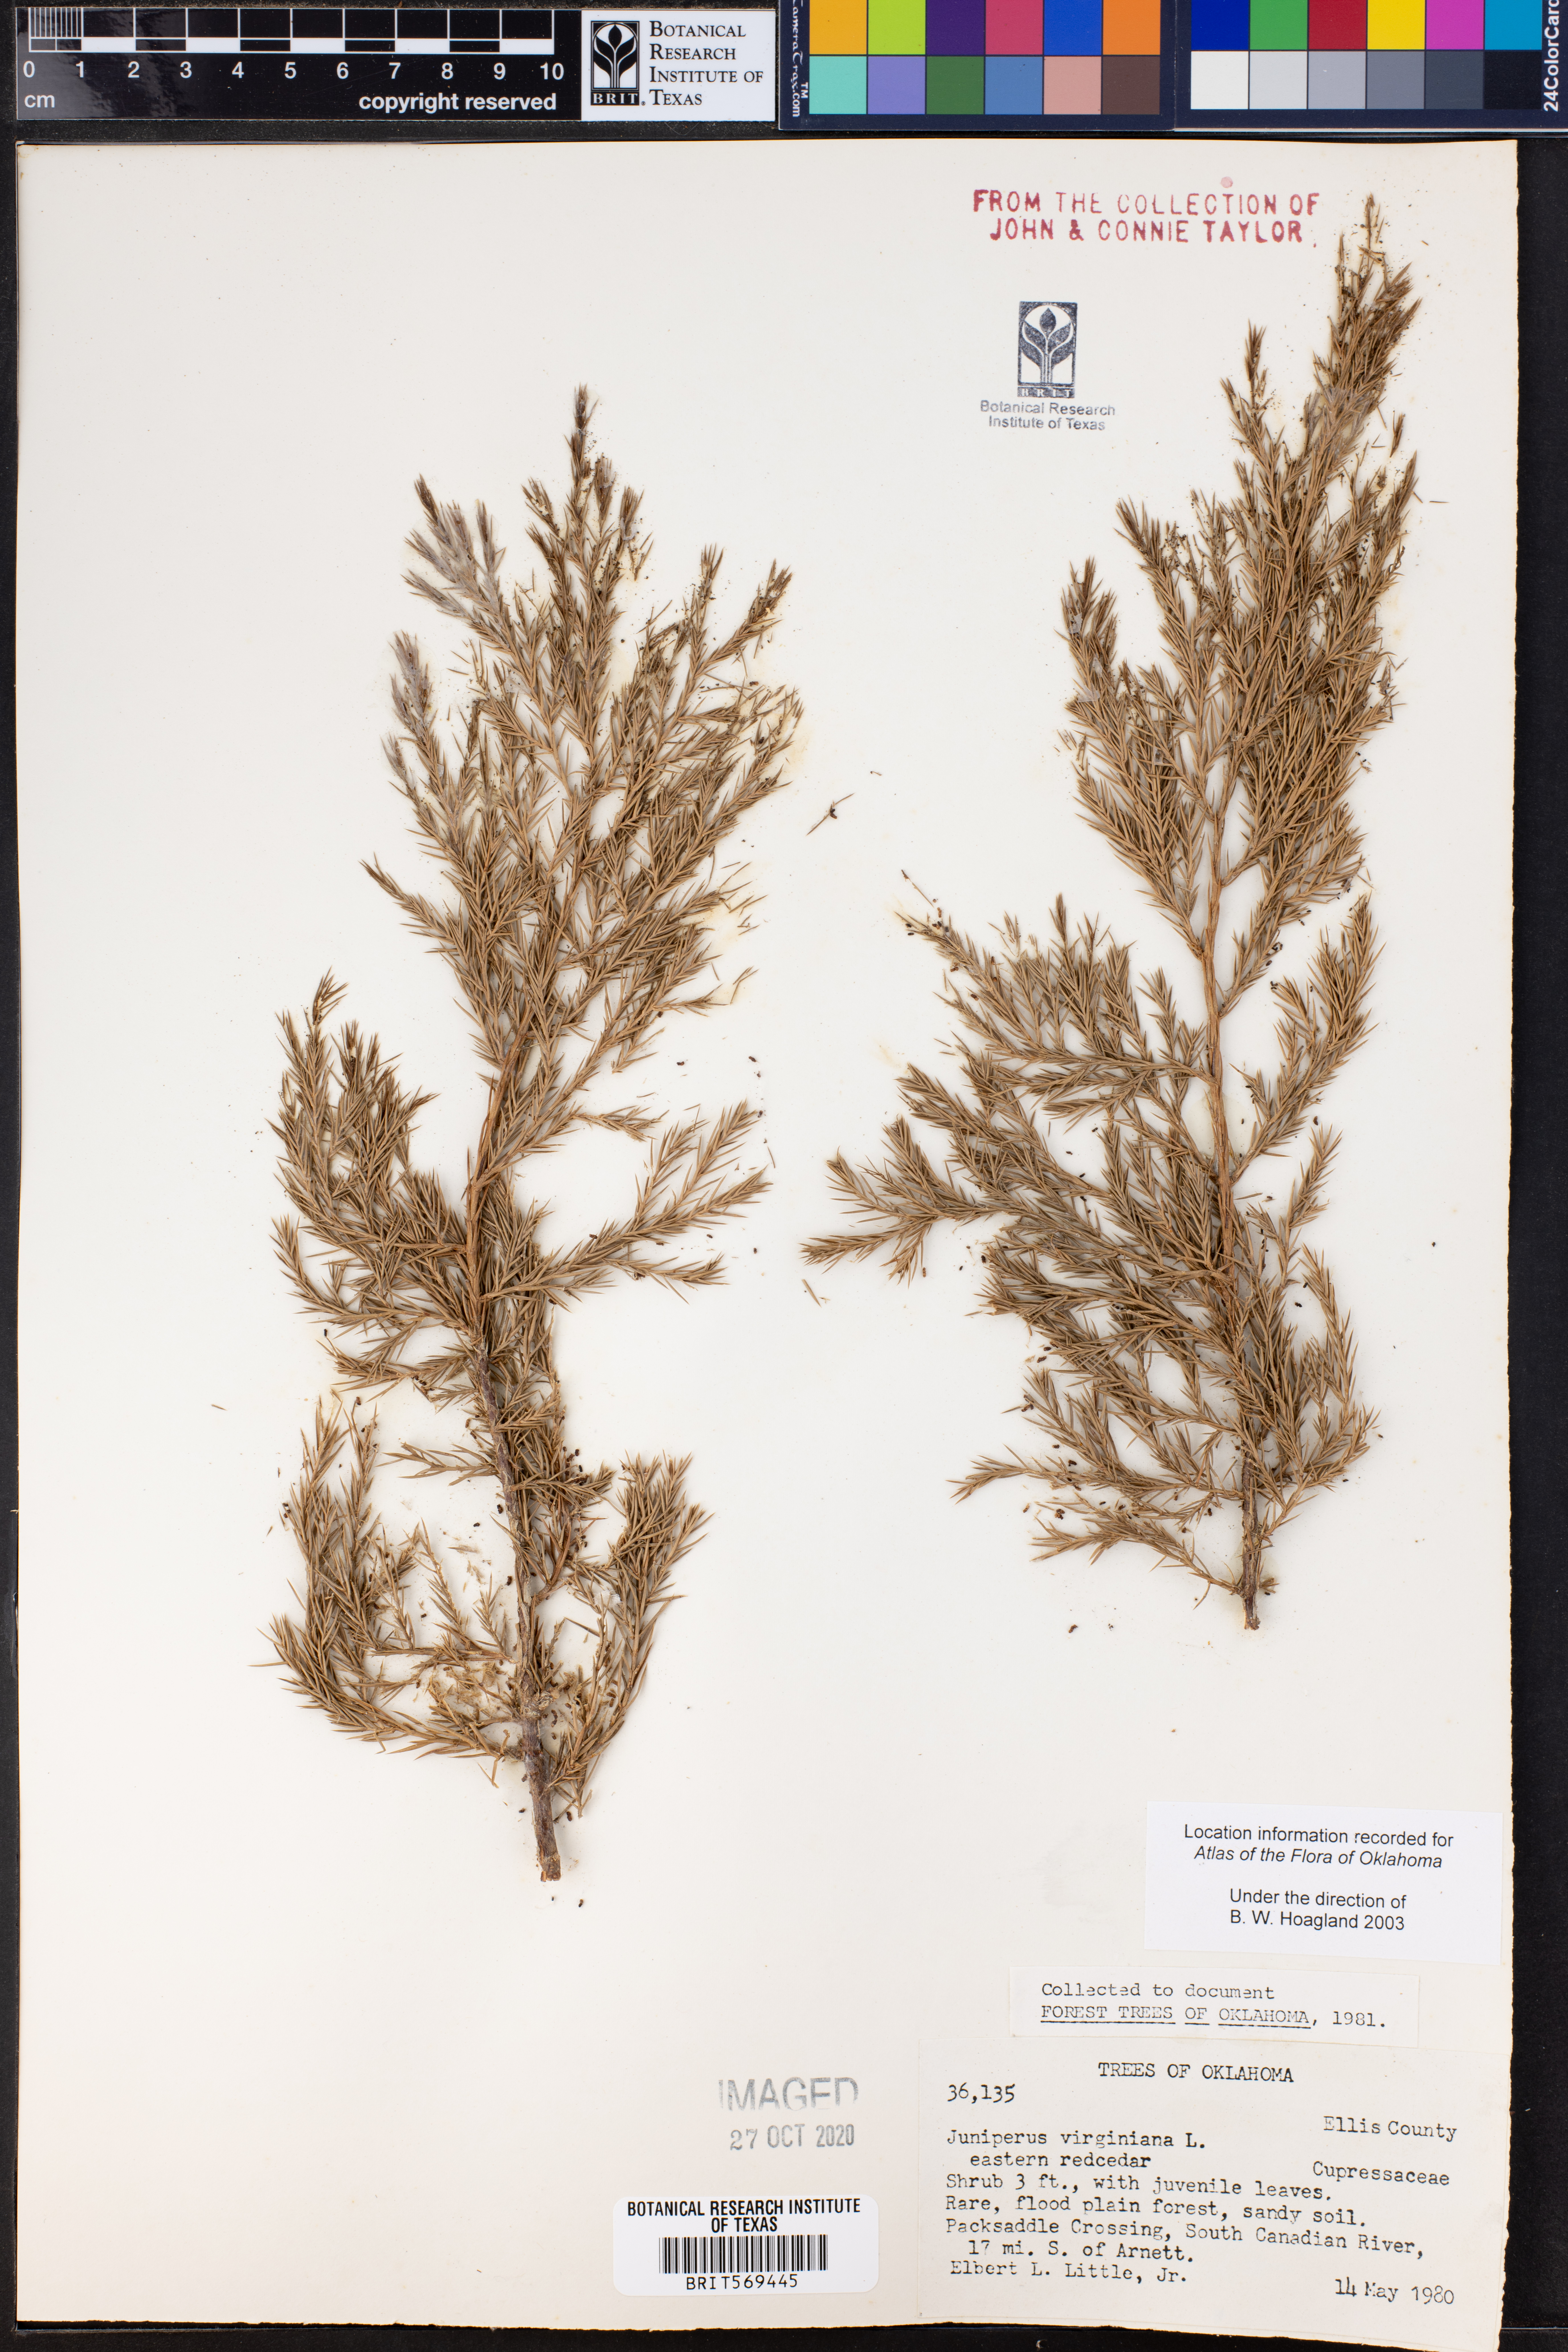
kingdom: Plantae
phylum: Tracheophyta
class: Pinopsida
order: Pinales
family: Cupressaceae
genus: Juniperus
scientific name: Juniperus virginiana
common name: Red juniper
